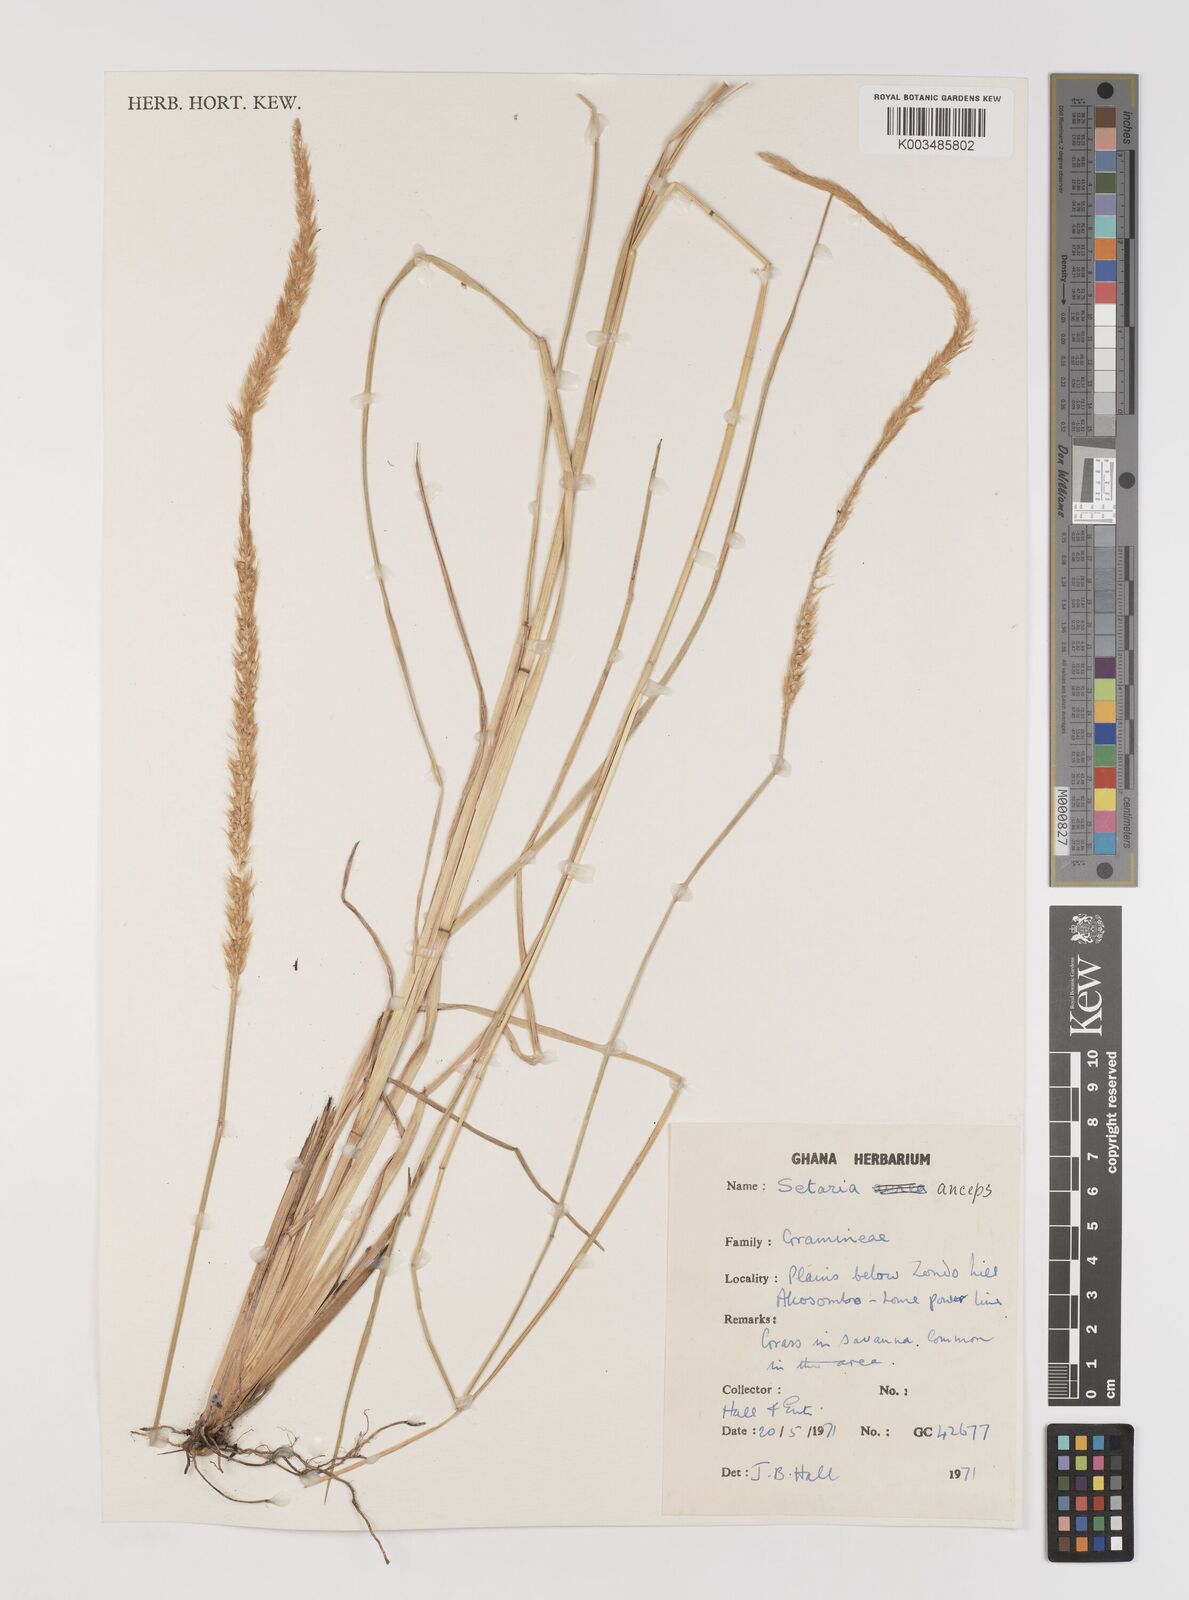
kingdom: Plantae
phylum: Tracheophyta
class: Liliopsida
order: Poales
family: Poaceae
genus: Setaria
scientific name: Setaria sphacelata
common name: African bristlegrass
